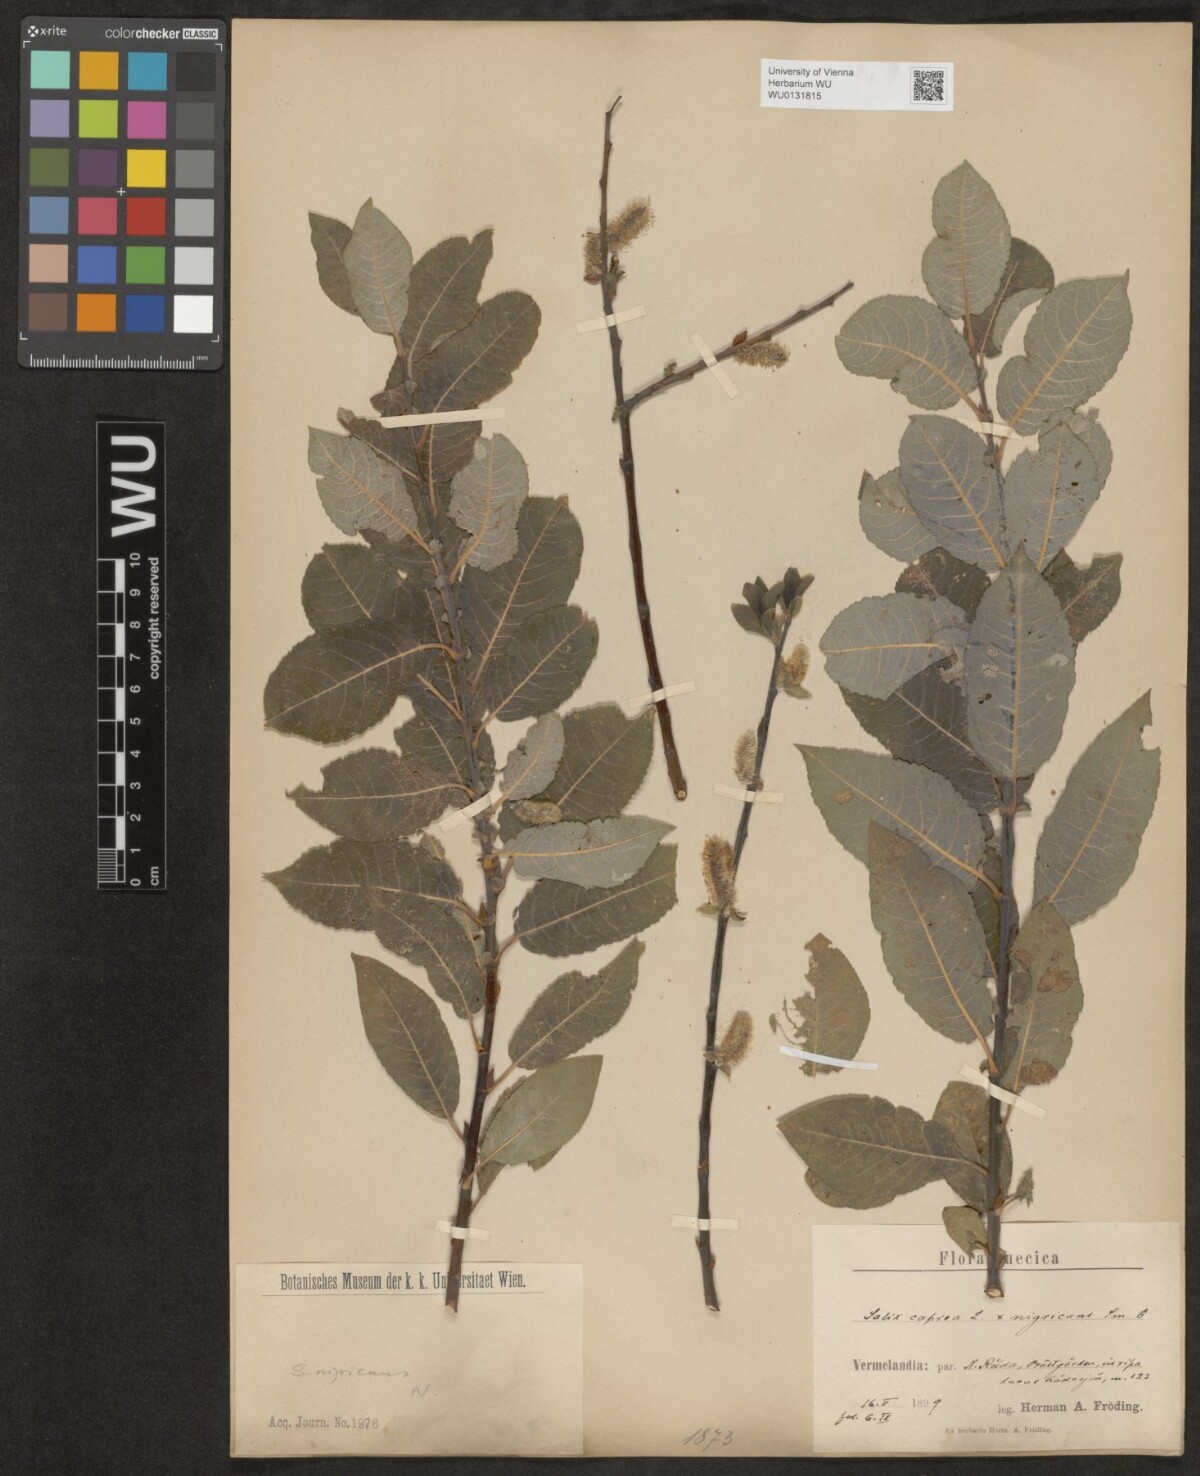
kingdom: Plantae
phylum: Tracheophyta
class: Magnoliopsida
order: Malpighiales
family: Salicaceae
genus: Salix
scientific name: Salix myrsinifolia
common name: Dark-leaved willow
